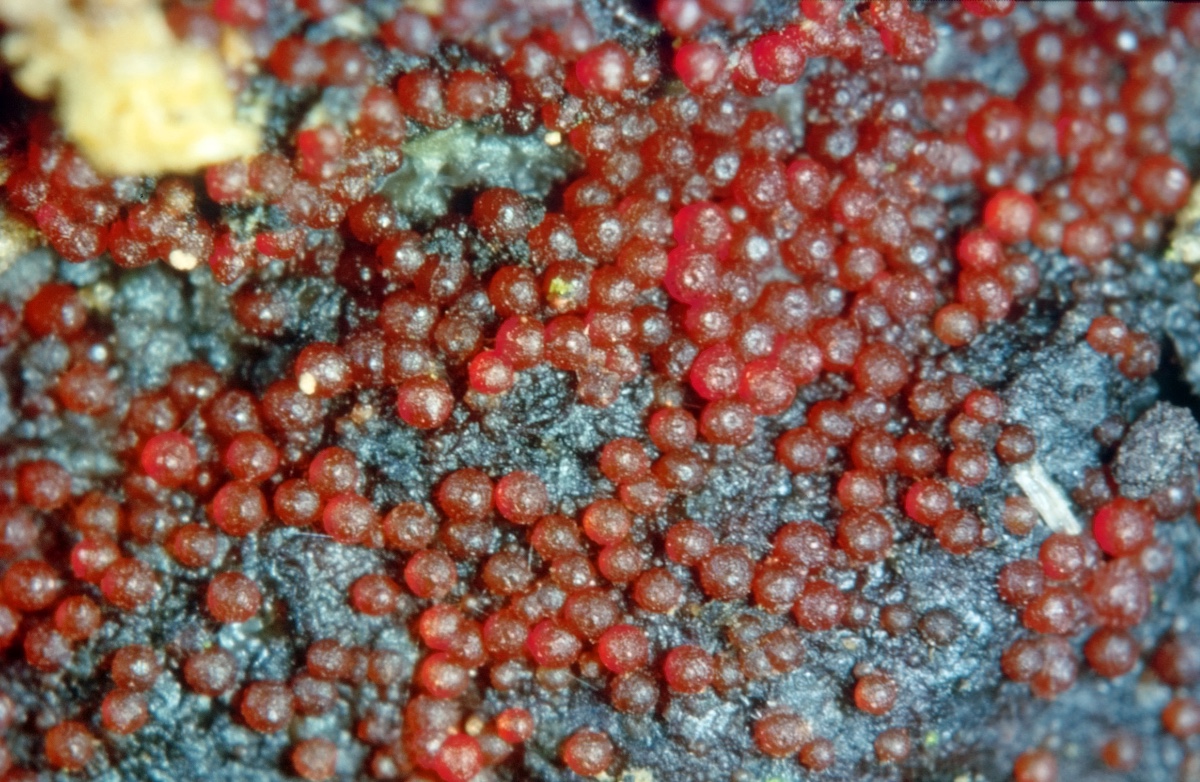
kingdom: Fungi
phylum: Ascomycota
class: Sordariomycetes
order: Hypocreales
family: Nectriaceae
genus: Cosmospora
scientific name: Cosmospora arxii
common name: kuljordbær-cinnobersvamp
